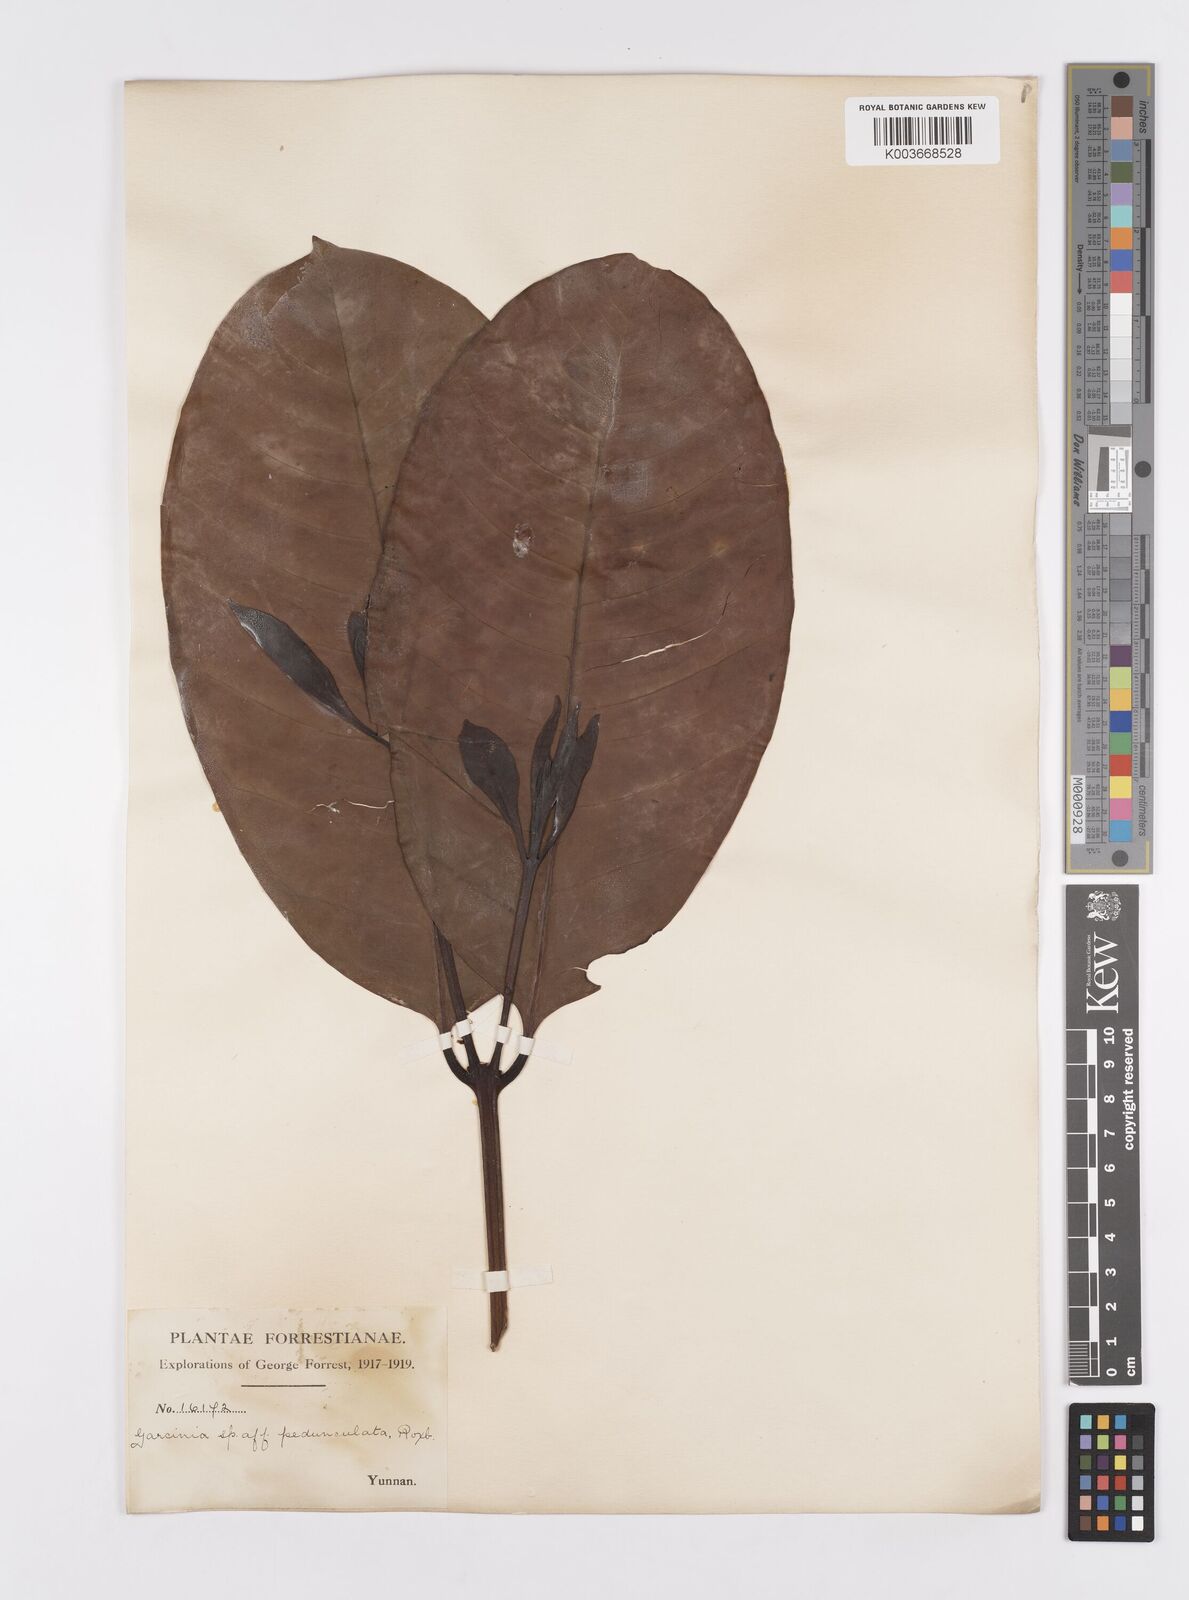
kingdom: Plantae
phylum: Tracheophyta
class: Magnoliopsida
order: Malpighiales
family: Clusiaceae
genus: Garcinia
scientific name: Garcinia pedunculata
